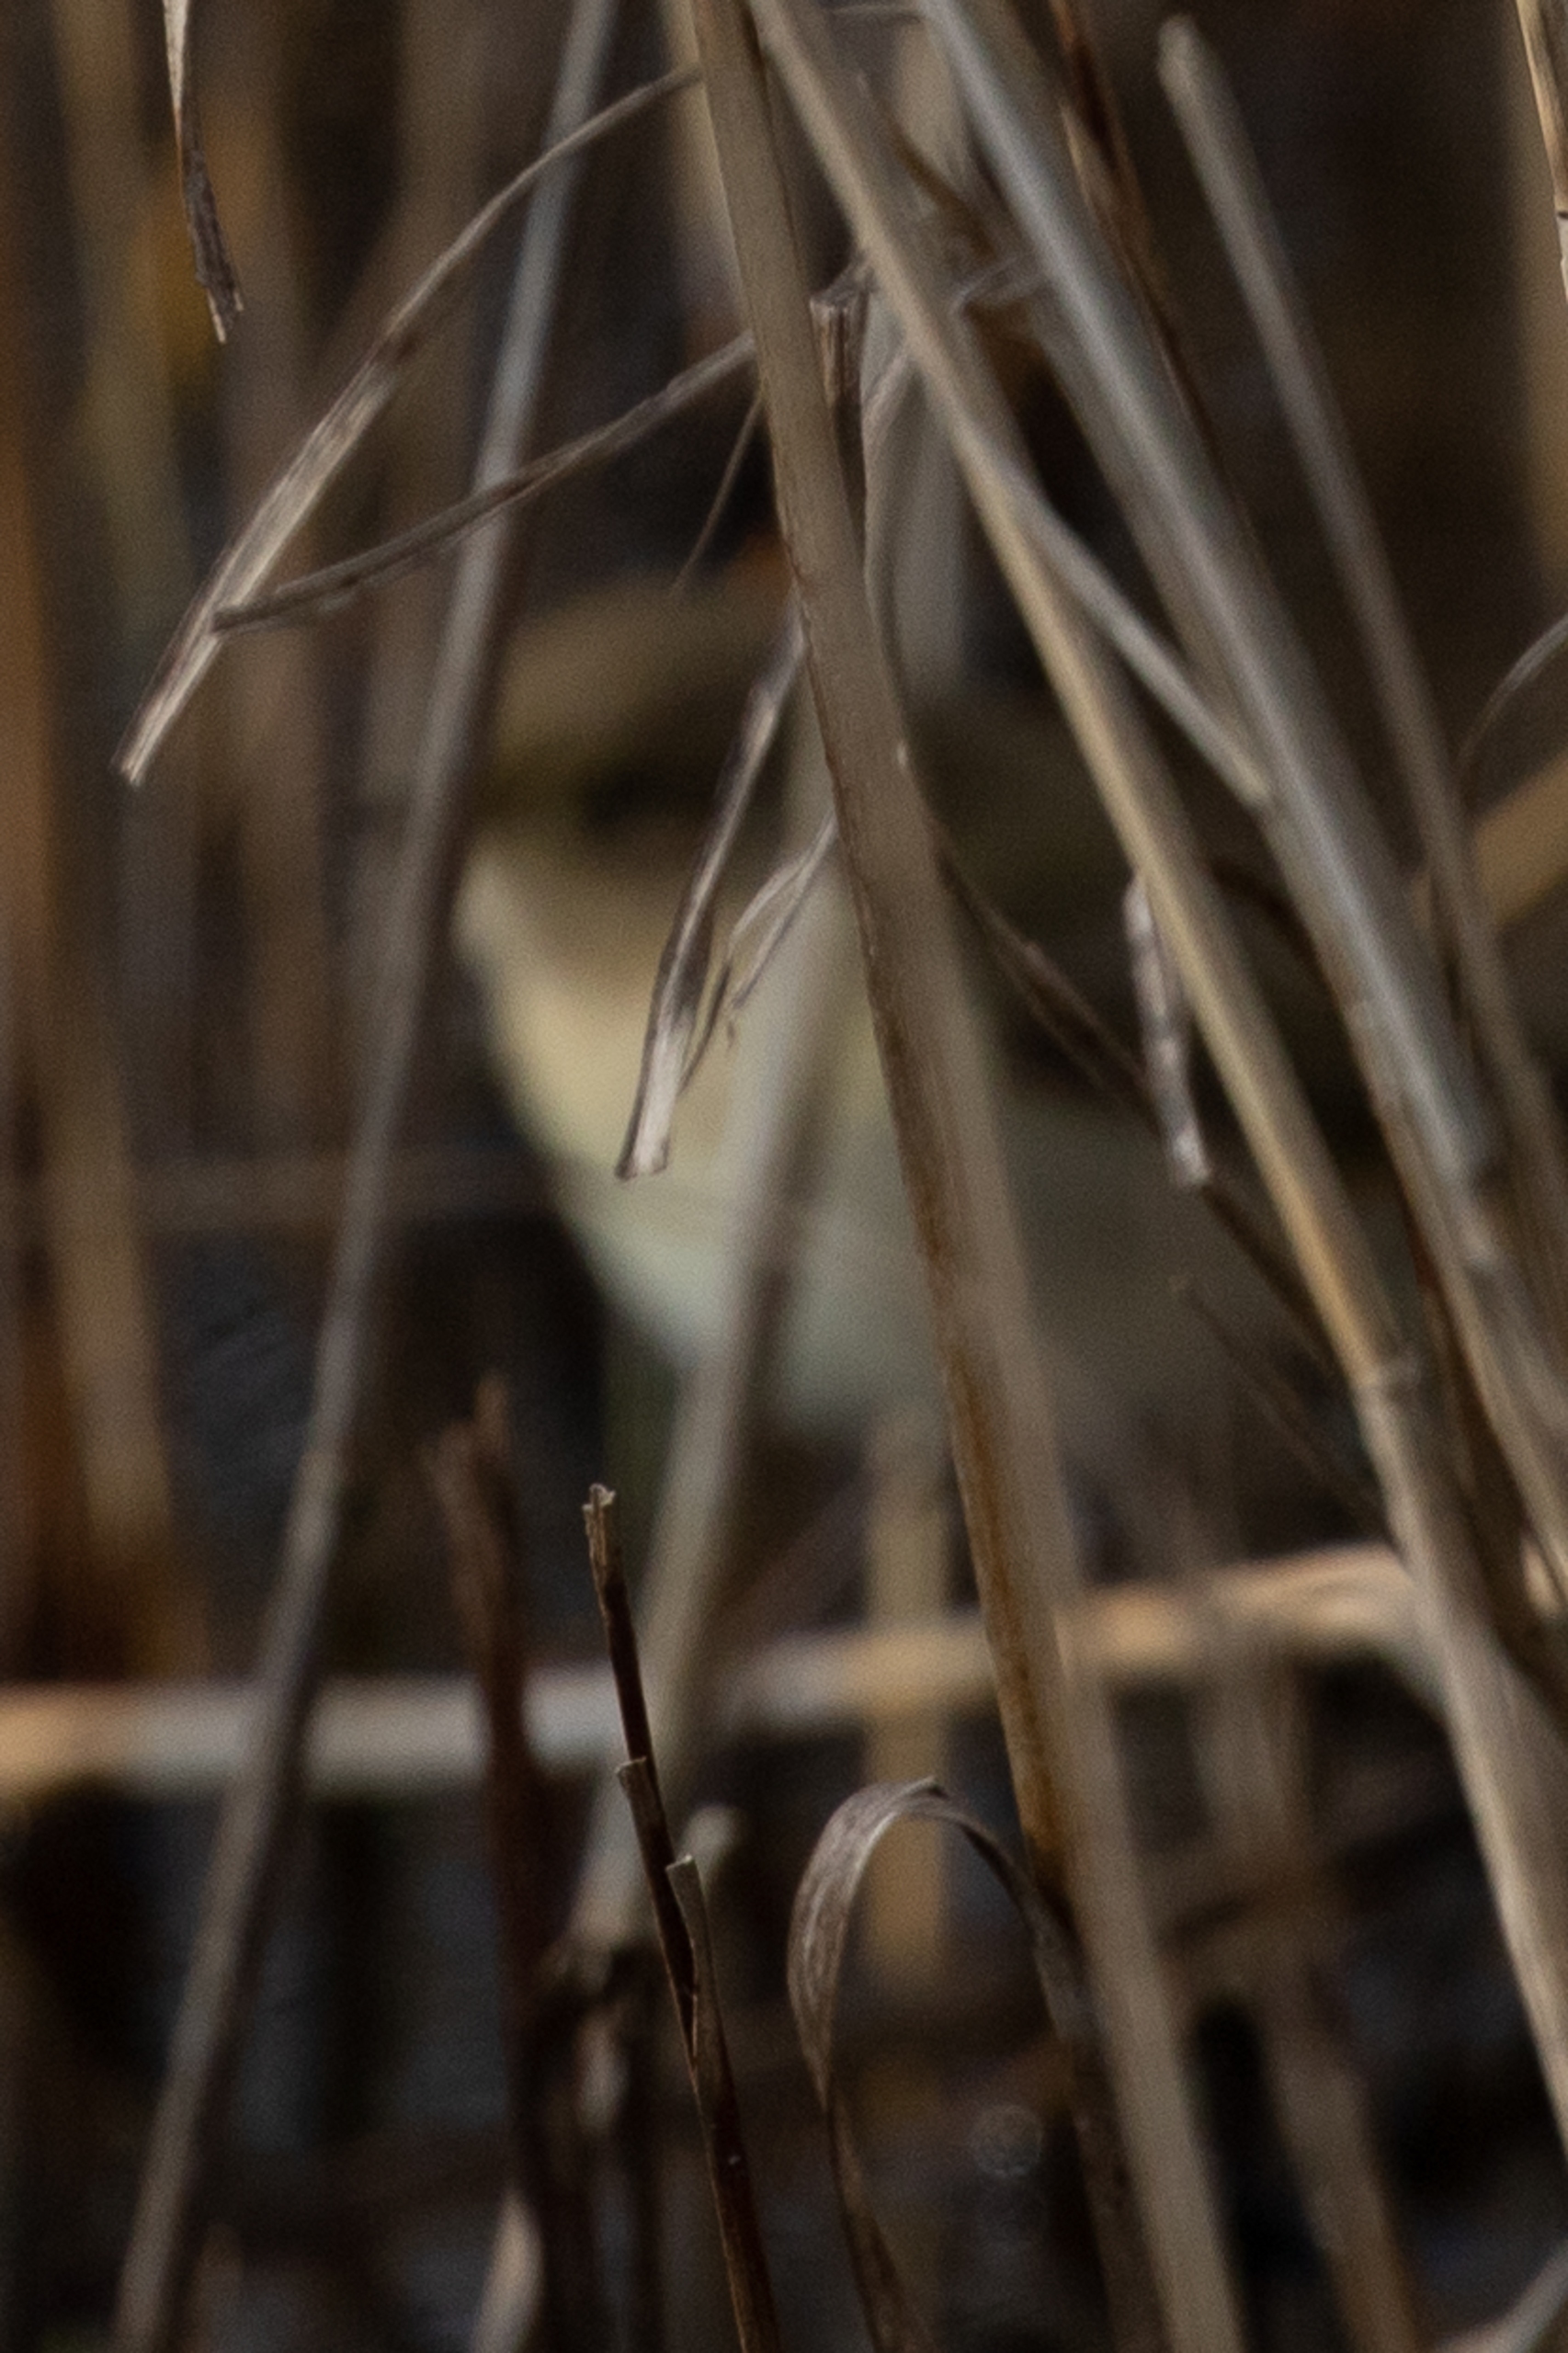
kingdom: Animalia
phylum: Chordata
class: Aves
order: Passeriformes
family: Phylloscopidae
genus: Phylloscopus
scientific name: Phylloscopus collybita
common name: Gransanger
